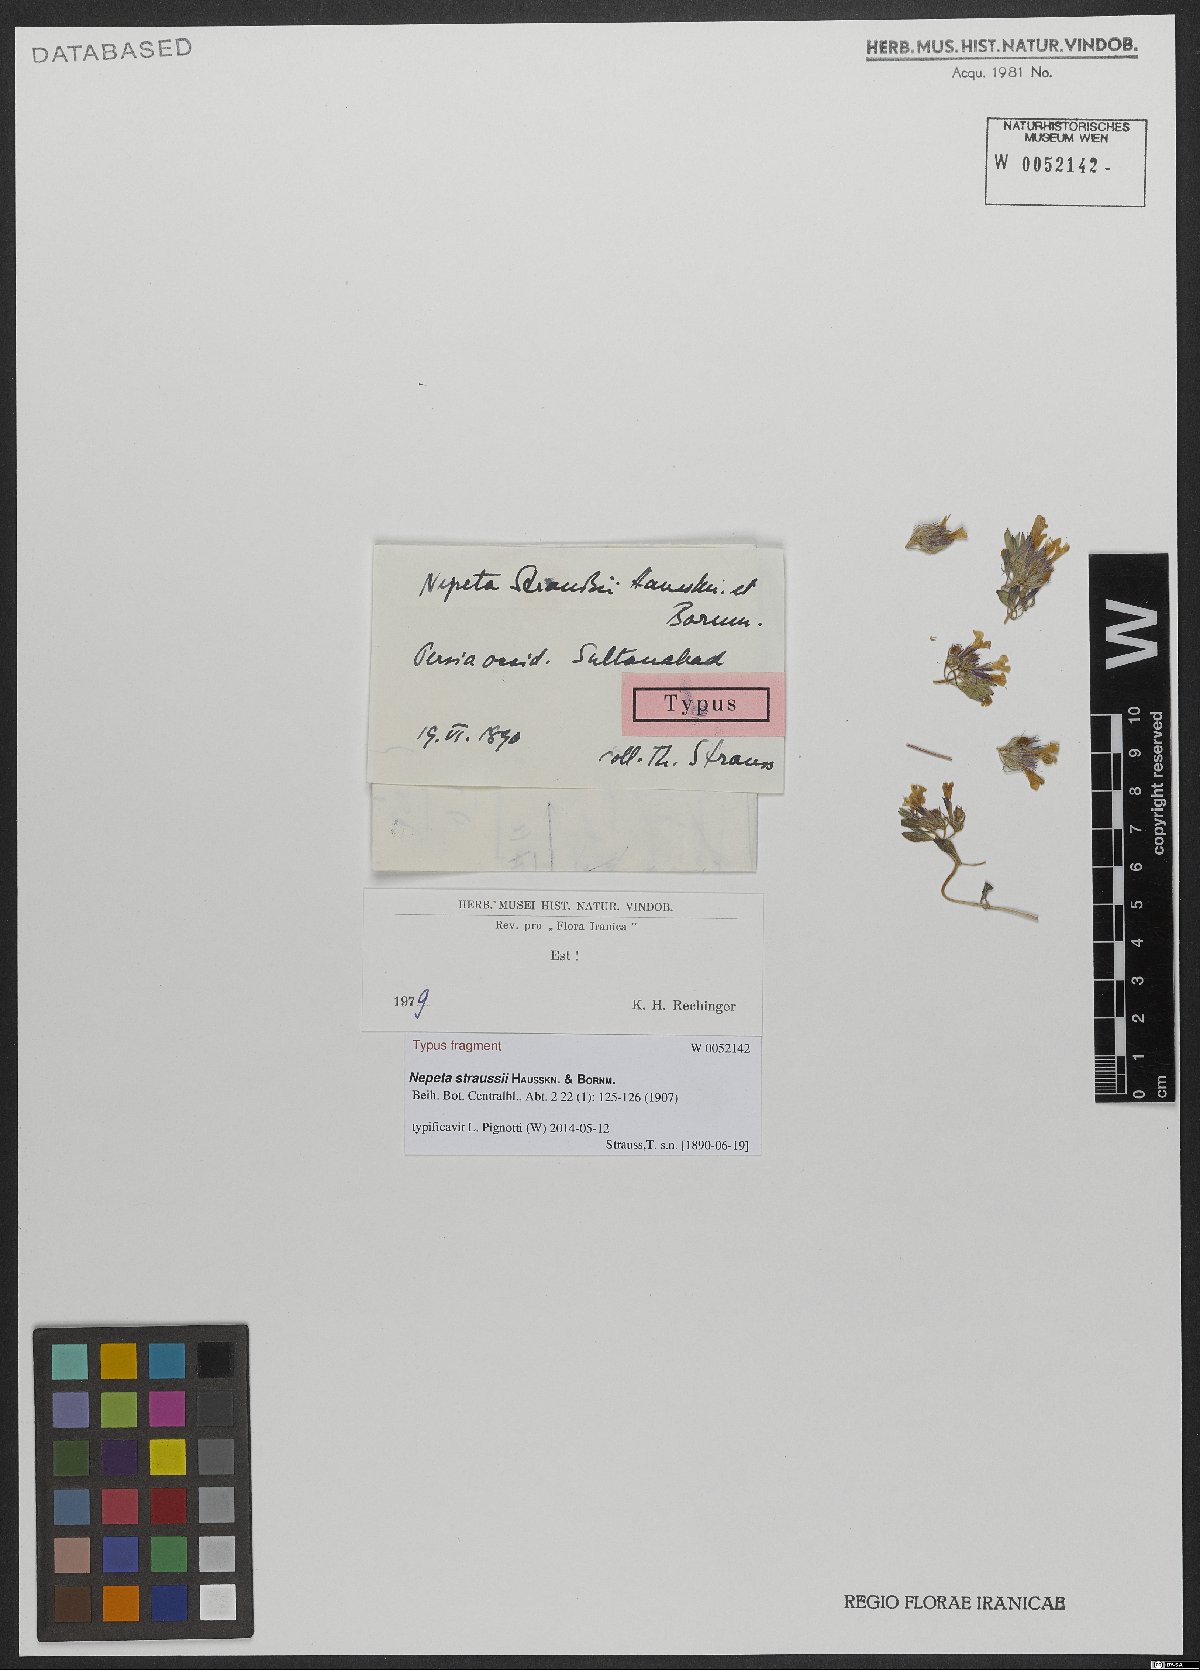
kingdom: Plantae
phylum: Tracheophyta
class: Magnoliopsida
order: Lamiales
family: Lamiaceae
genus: Nepeta
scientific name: Nepeta straussii
